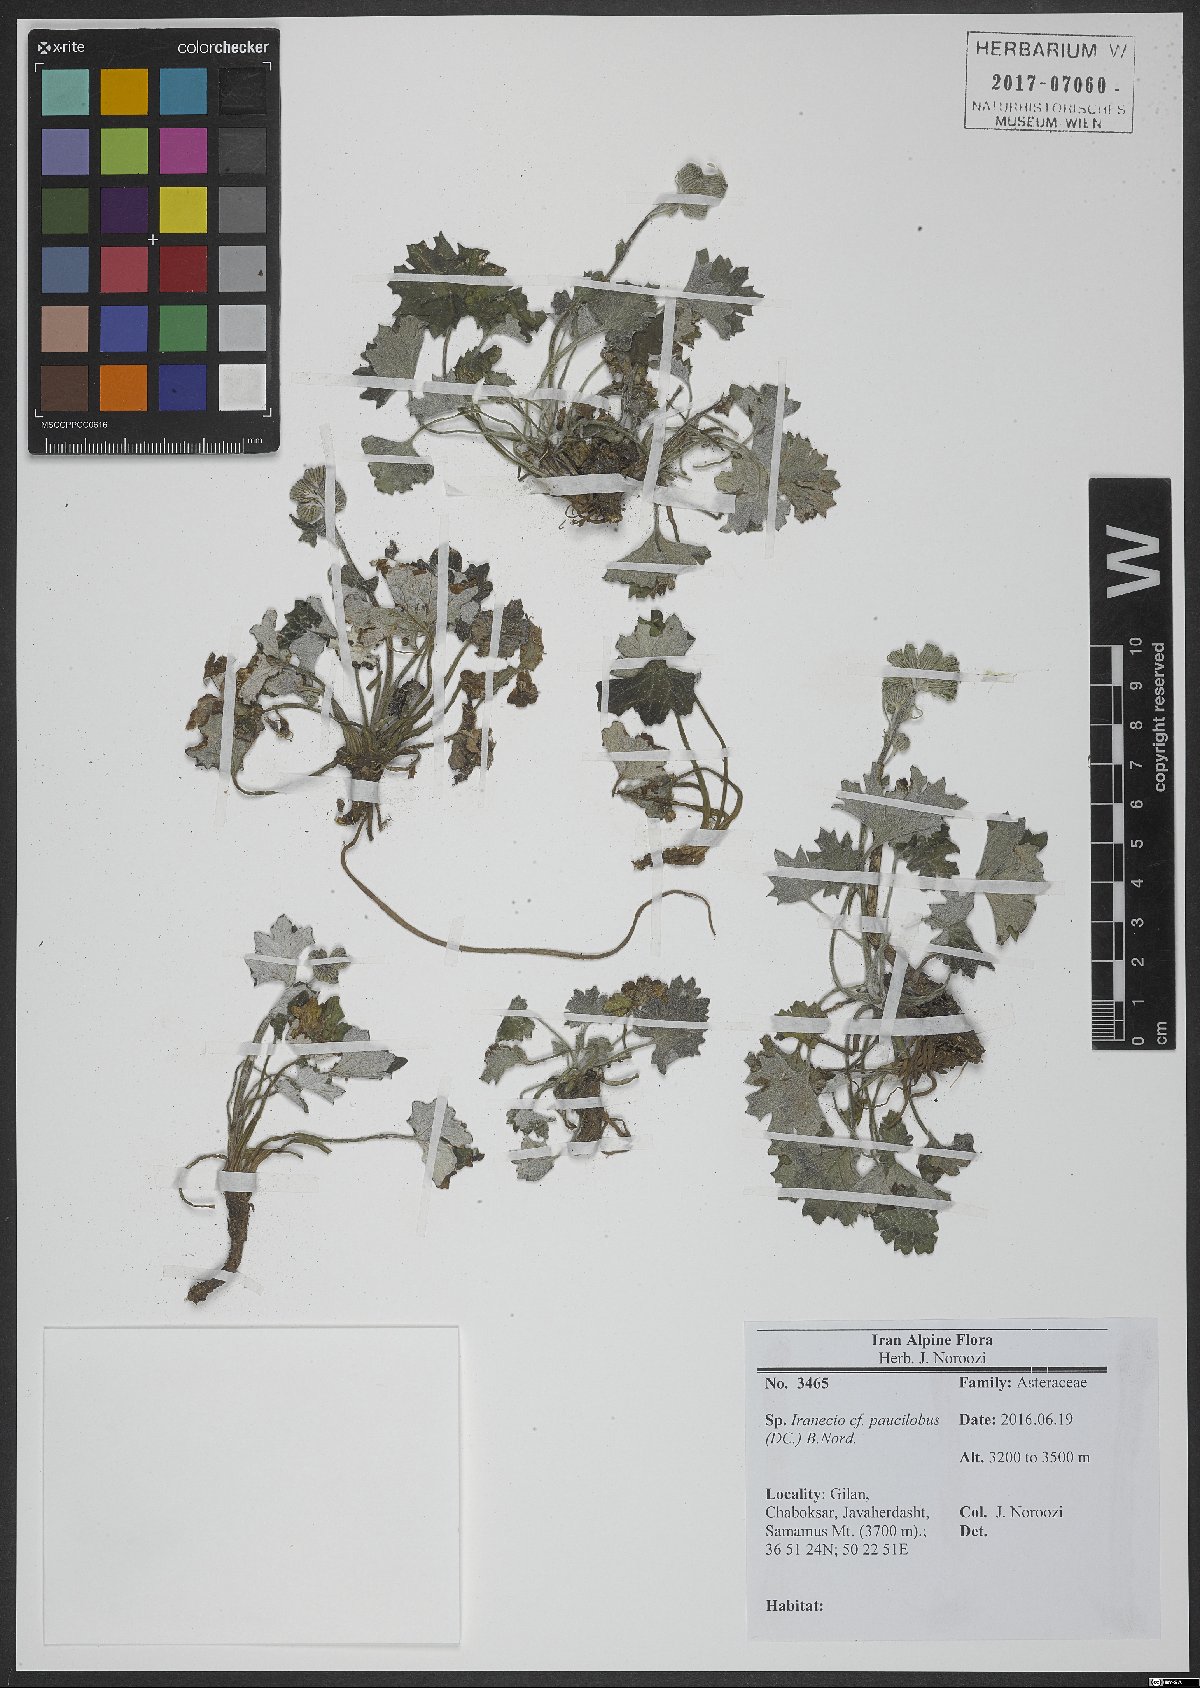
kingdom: Plantae
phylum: Tracheophyta
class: Magnoliopsida
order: Asterales
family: Asteraceae
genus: Iranecio
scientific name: Iranecio paucilobus
